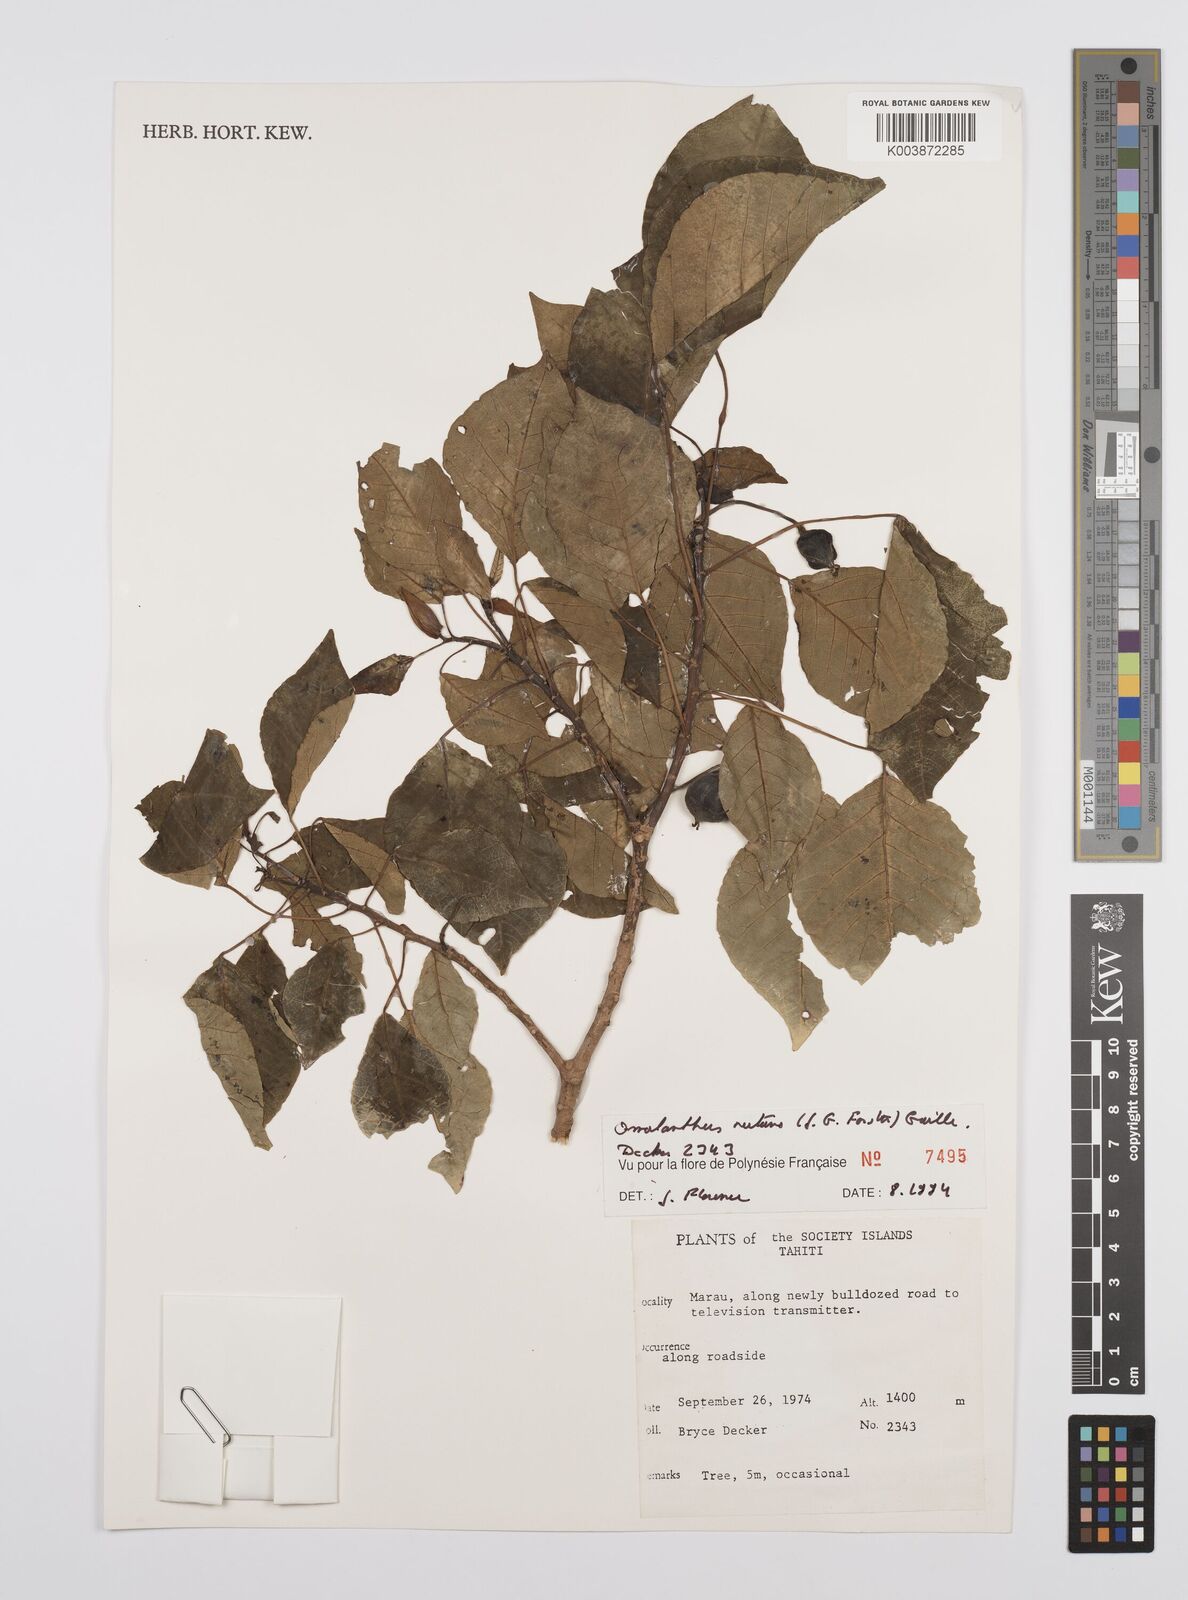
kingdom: Plantae
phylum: Tracheophyta
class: Magnoliopsida
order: Malpighiales
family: Euphorbiaceae
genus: Homalanthus
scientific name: Homalanthus nutans
